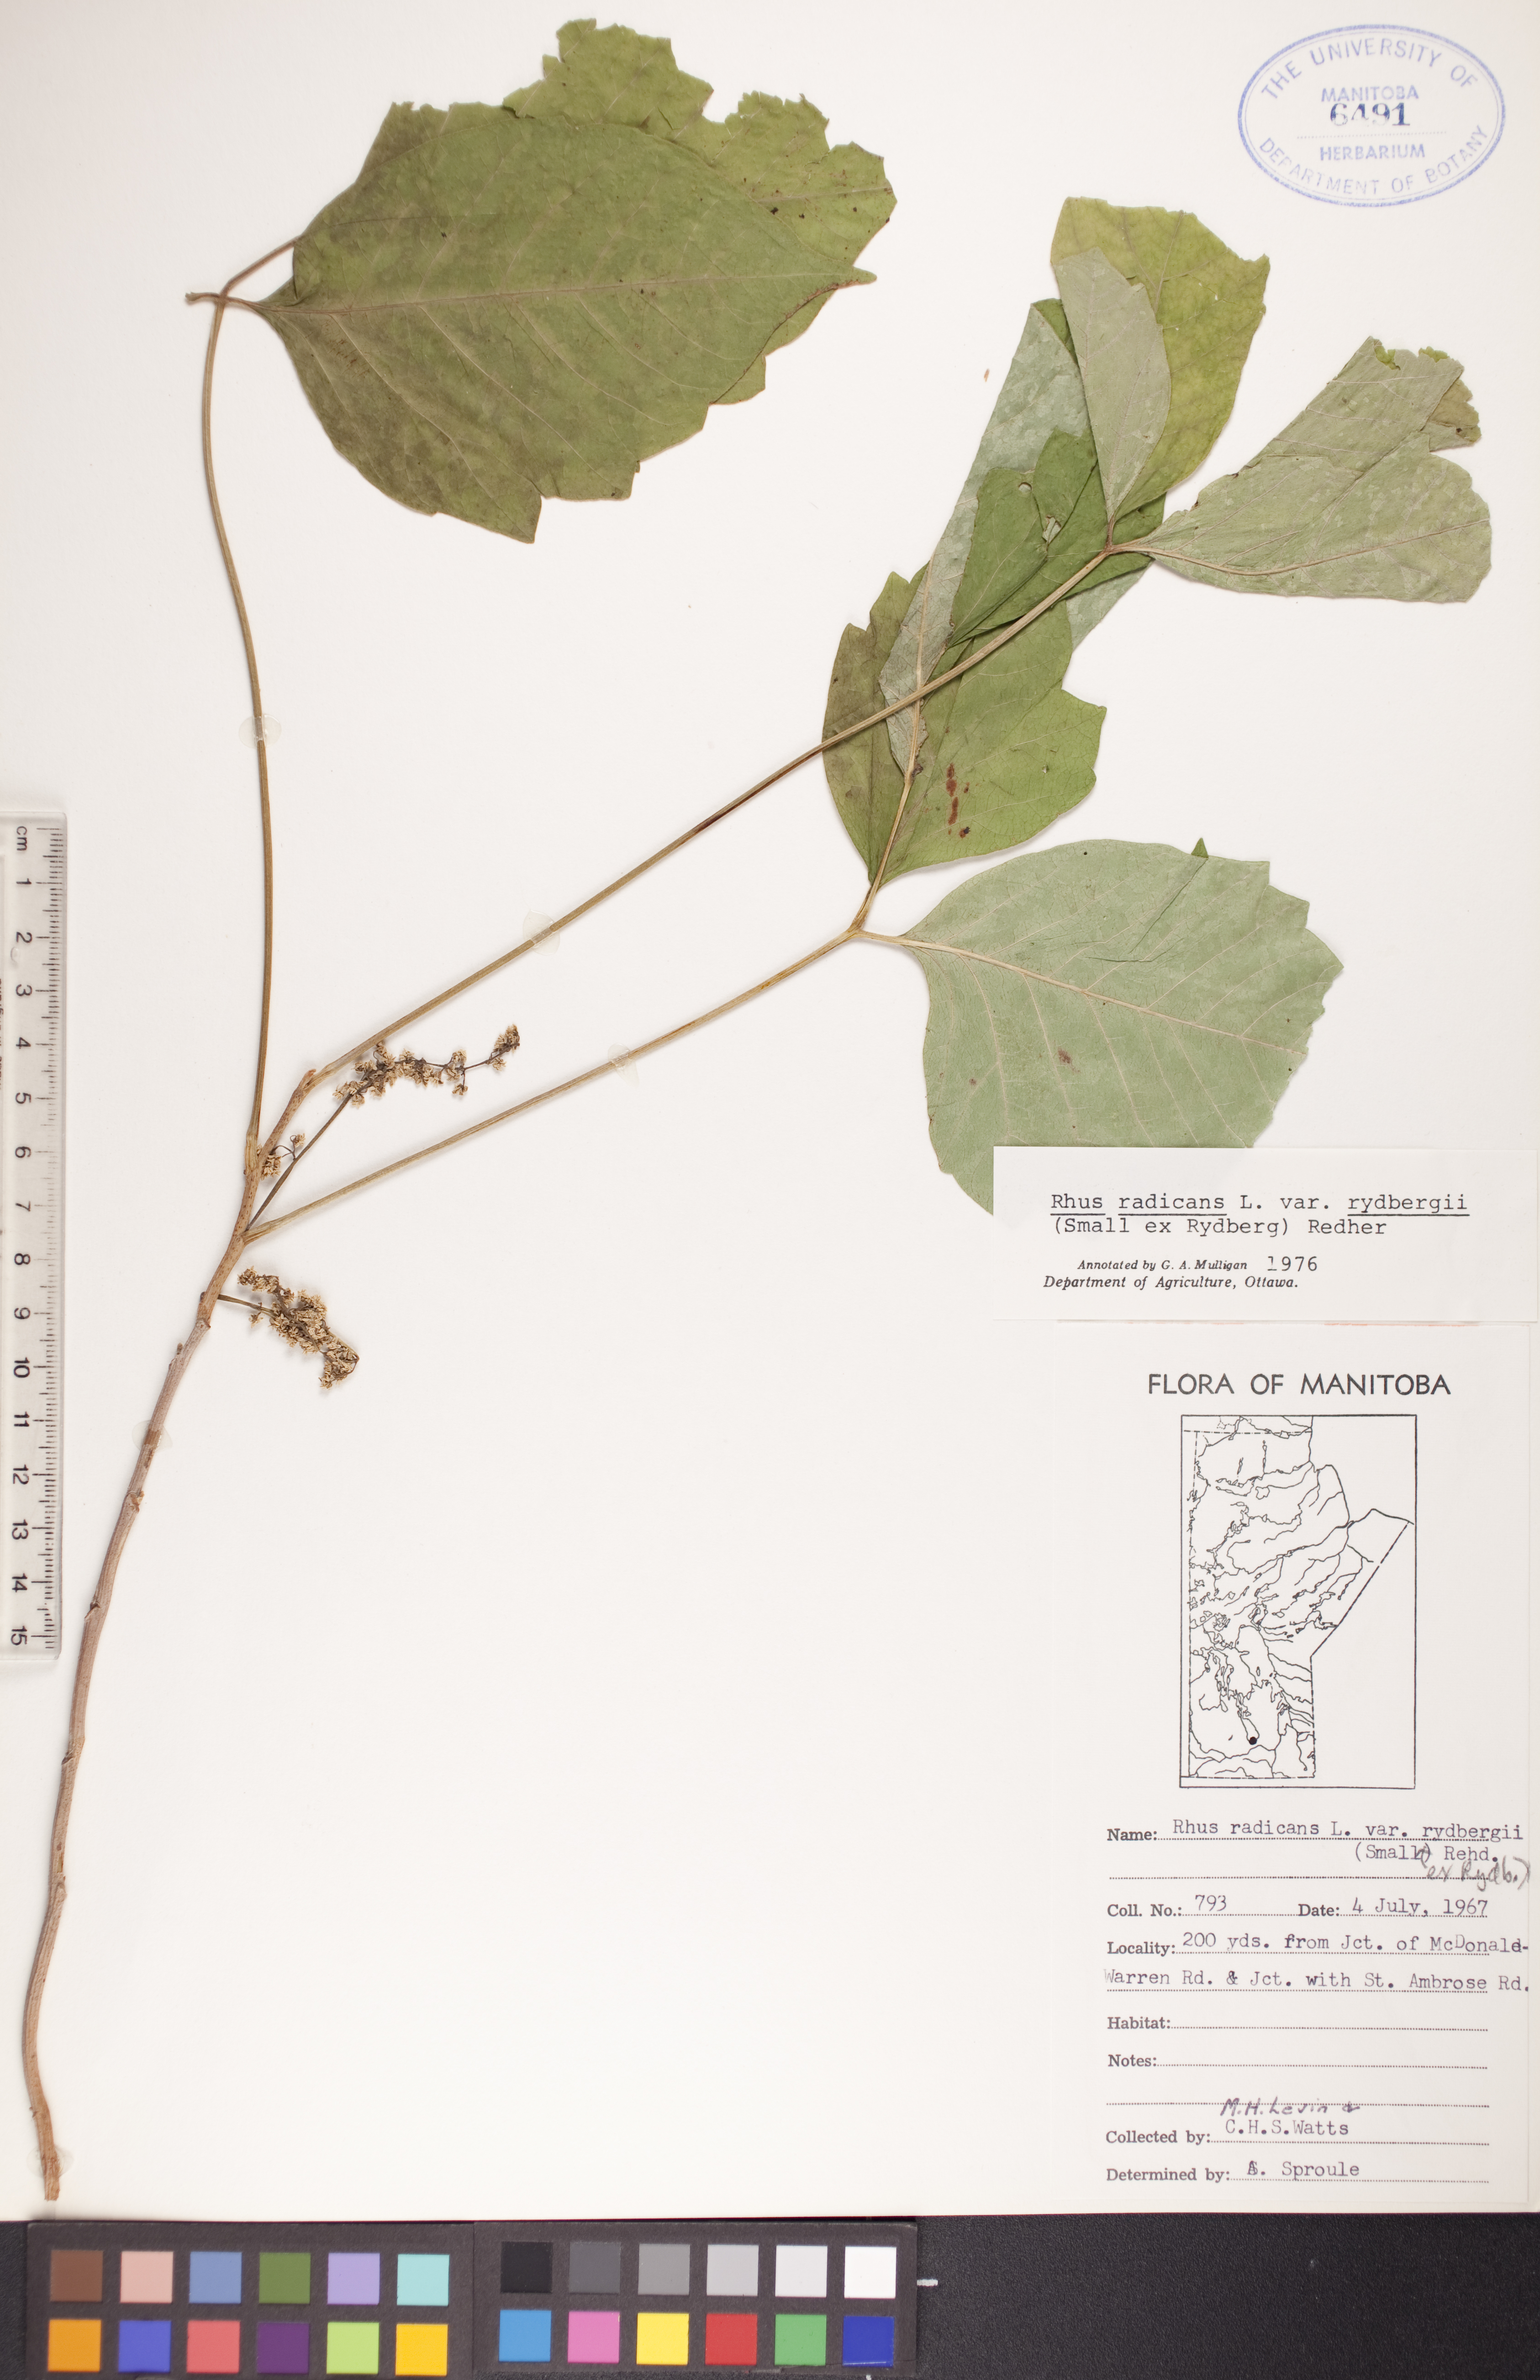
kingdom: Plantae
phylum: Tracheophyta
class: Magnoliopsida
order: Sapindales
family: Anacardiaceae
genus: Toxicodendron
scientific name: Toxicodendron radicans
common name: Poison ivy
